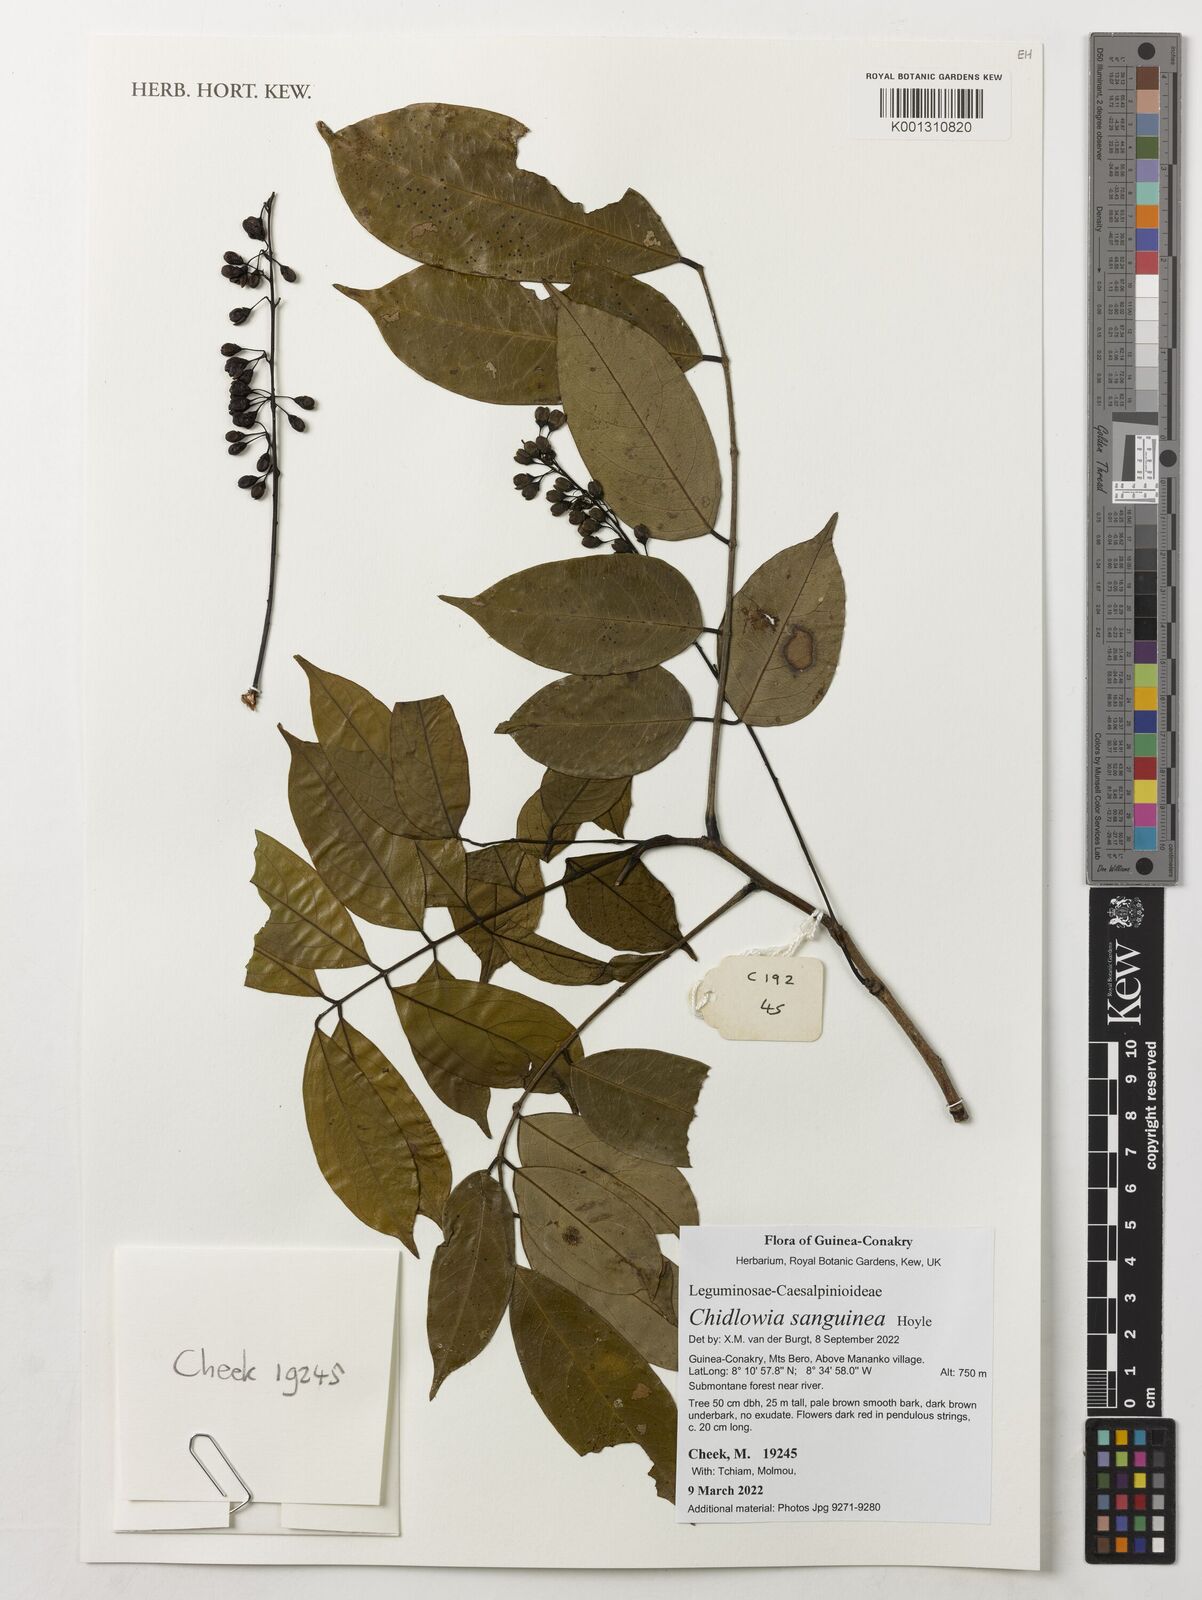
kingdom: Plantae
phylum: Tracheophyta
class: Magnoliopsida
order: Fabales
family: Fabaceae
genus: Chidlowia
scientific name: Chidlowia sanguinea
